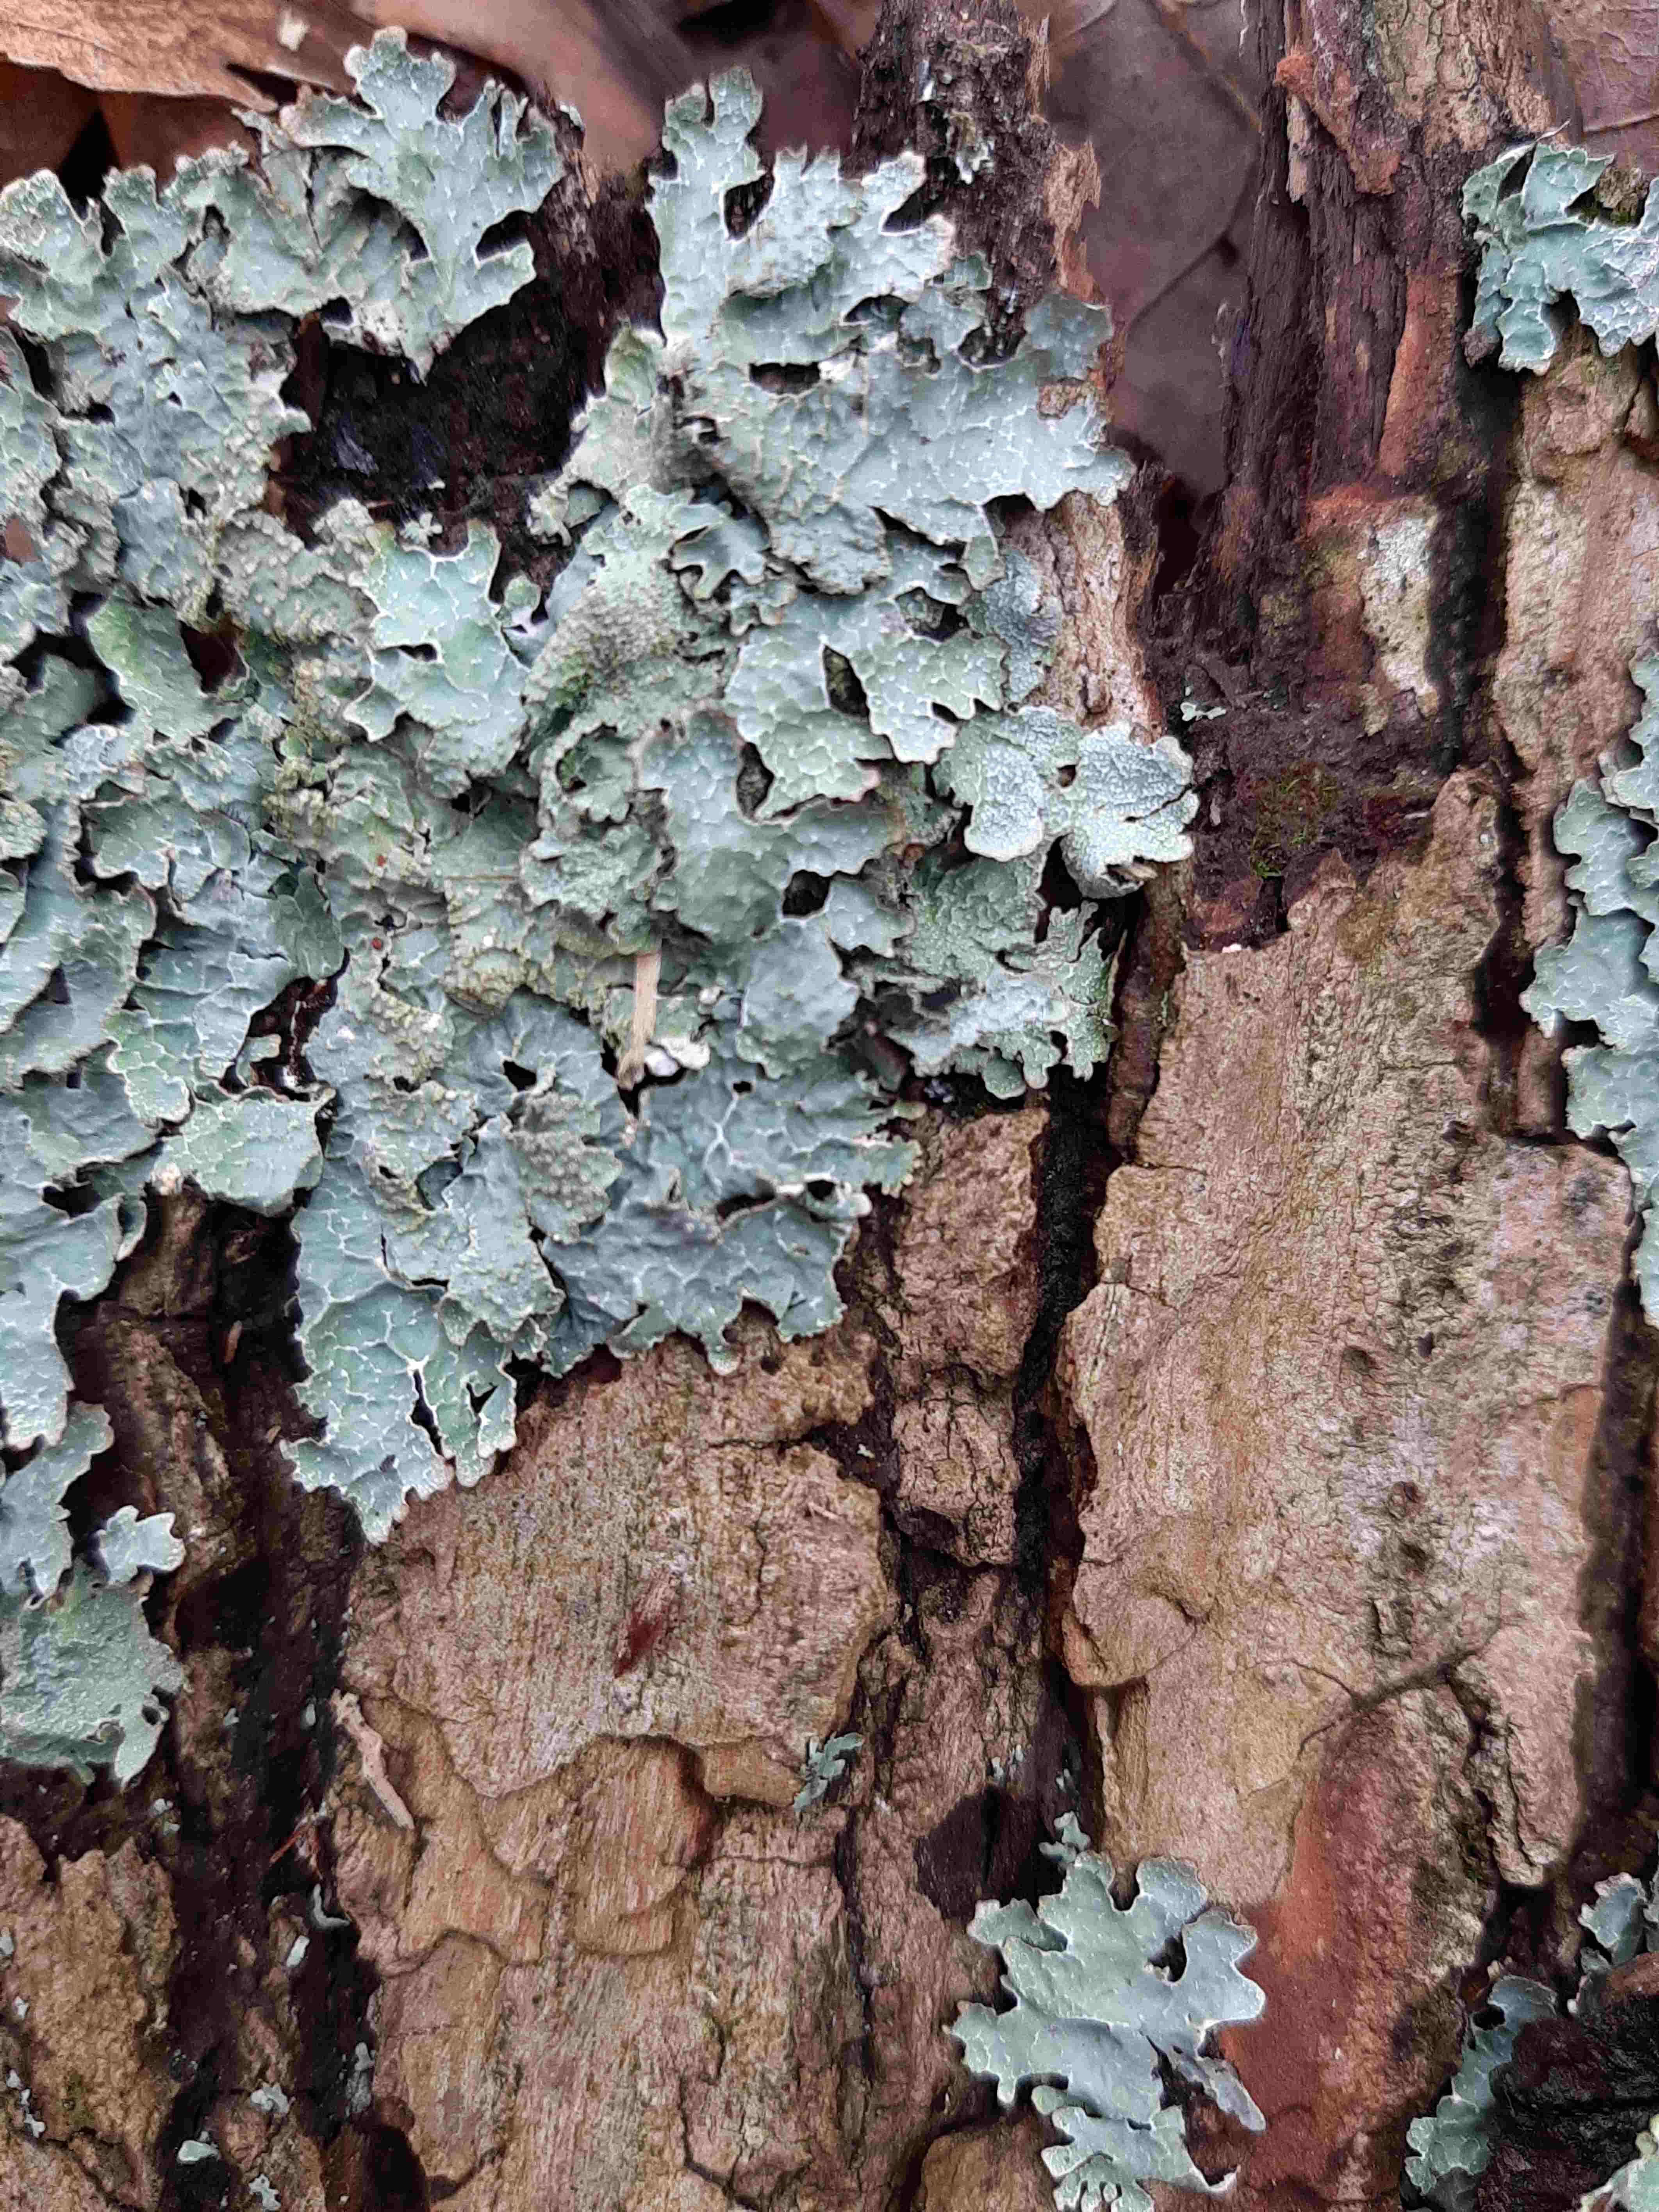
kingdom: Fungi
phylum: Ascomycota
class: Lecanoromycetes
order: Lecanorales
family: Parmeliaceae
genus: Parmelia
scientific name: Parmelia sulcata
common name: rynket skållav
